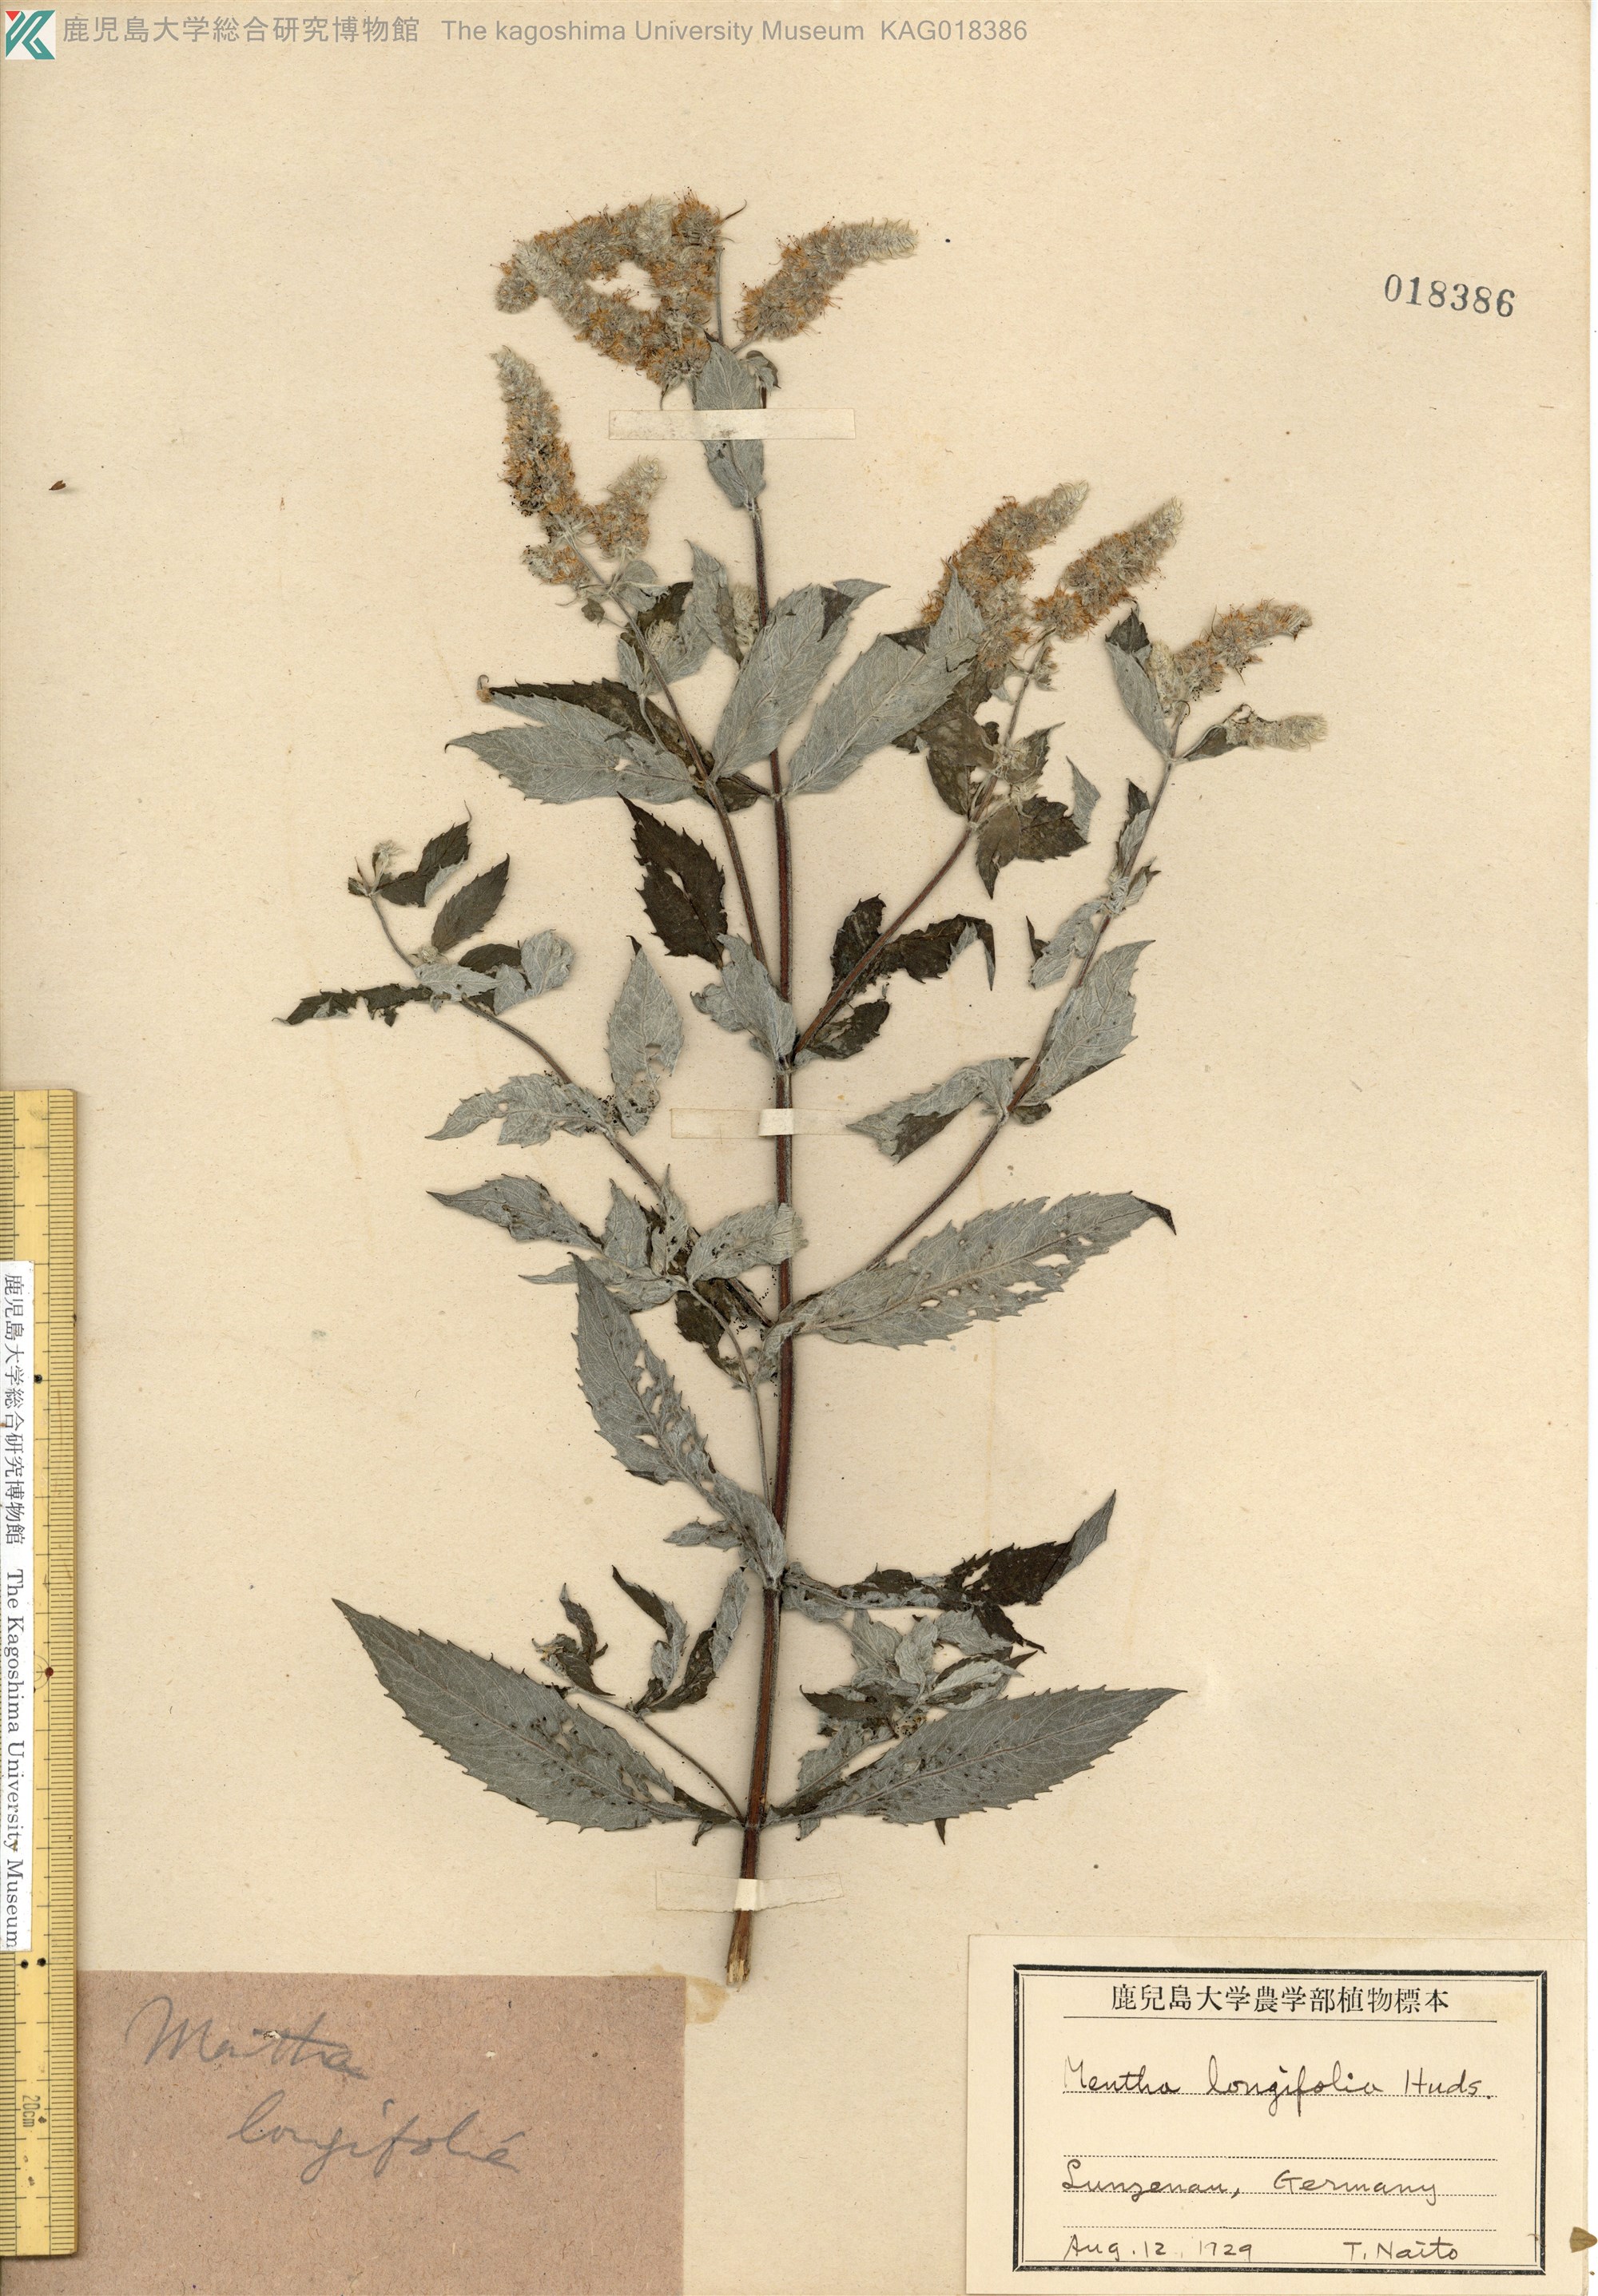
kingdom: Plantae
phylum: Tracheophyta
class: Magnoliopsida
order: Lamiales
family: Lamiaceae
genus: Mentha
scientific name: Mentha longifolia
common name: Horse mint
